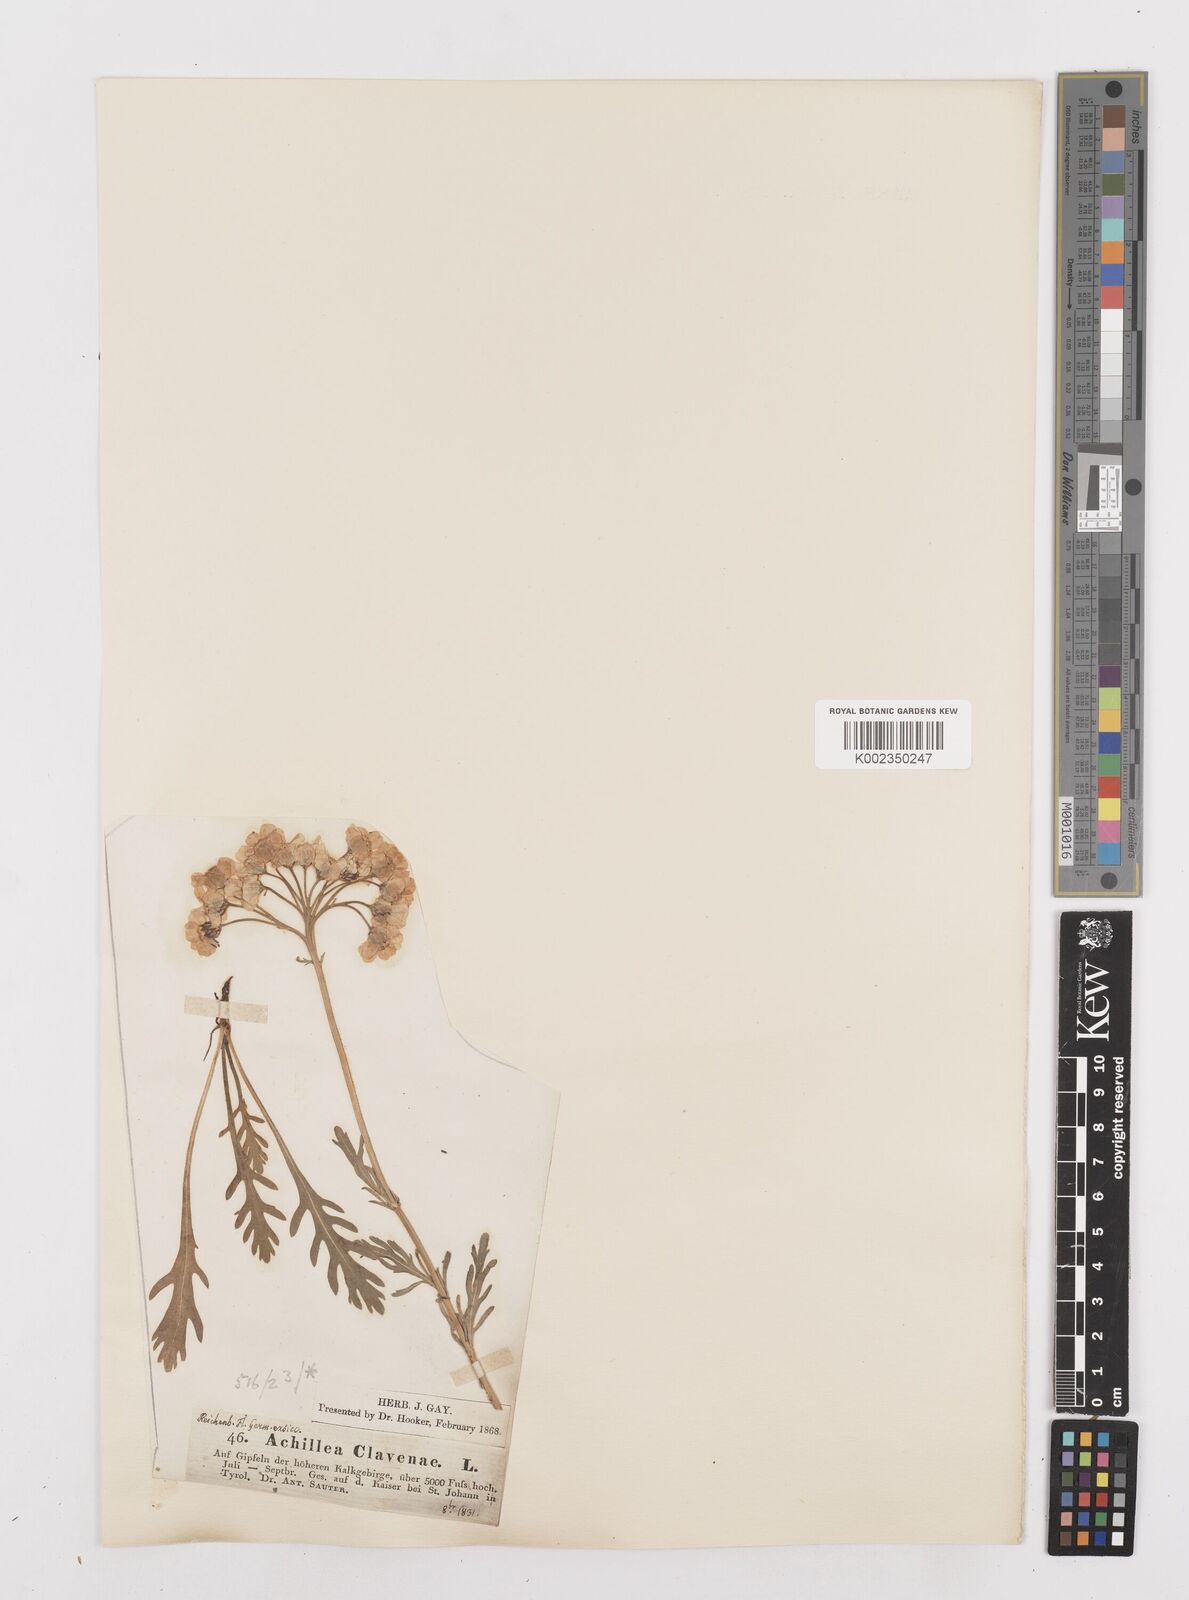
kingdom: Plantae
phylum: Tracheophyta
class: Magnoliopsida
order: Asterales
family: Asteraceae
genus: Achillea
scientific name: Achillea clavennae
